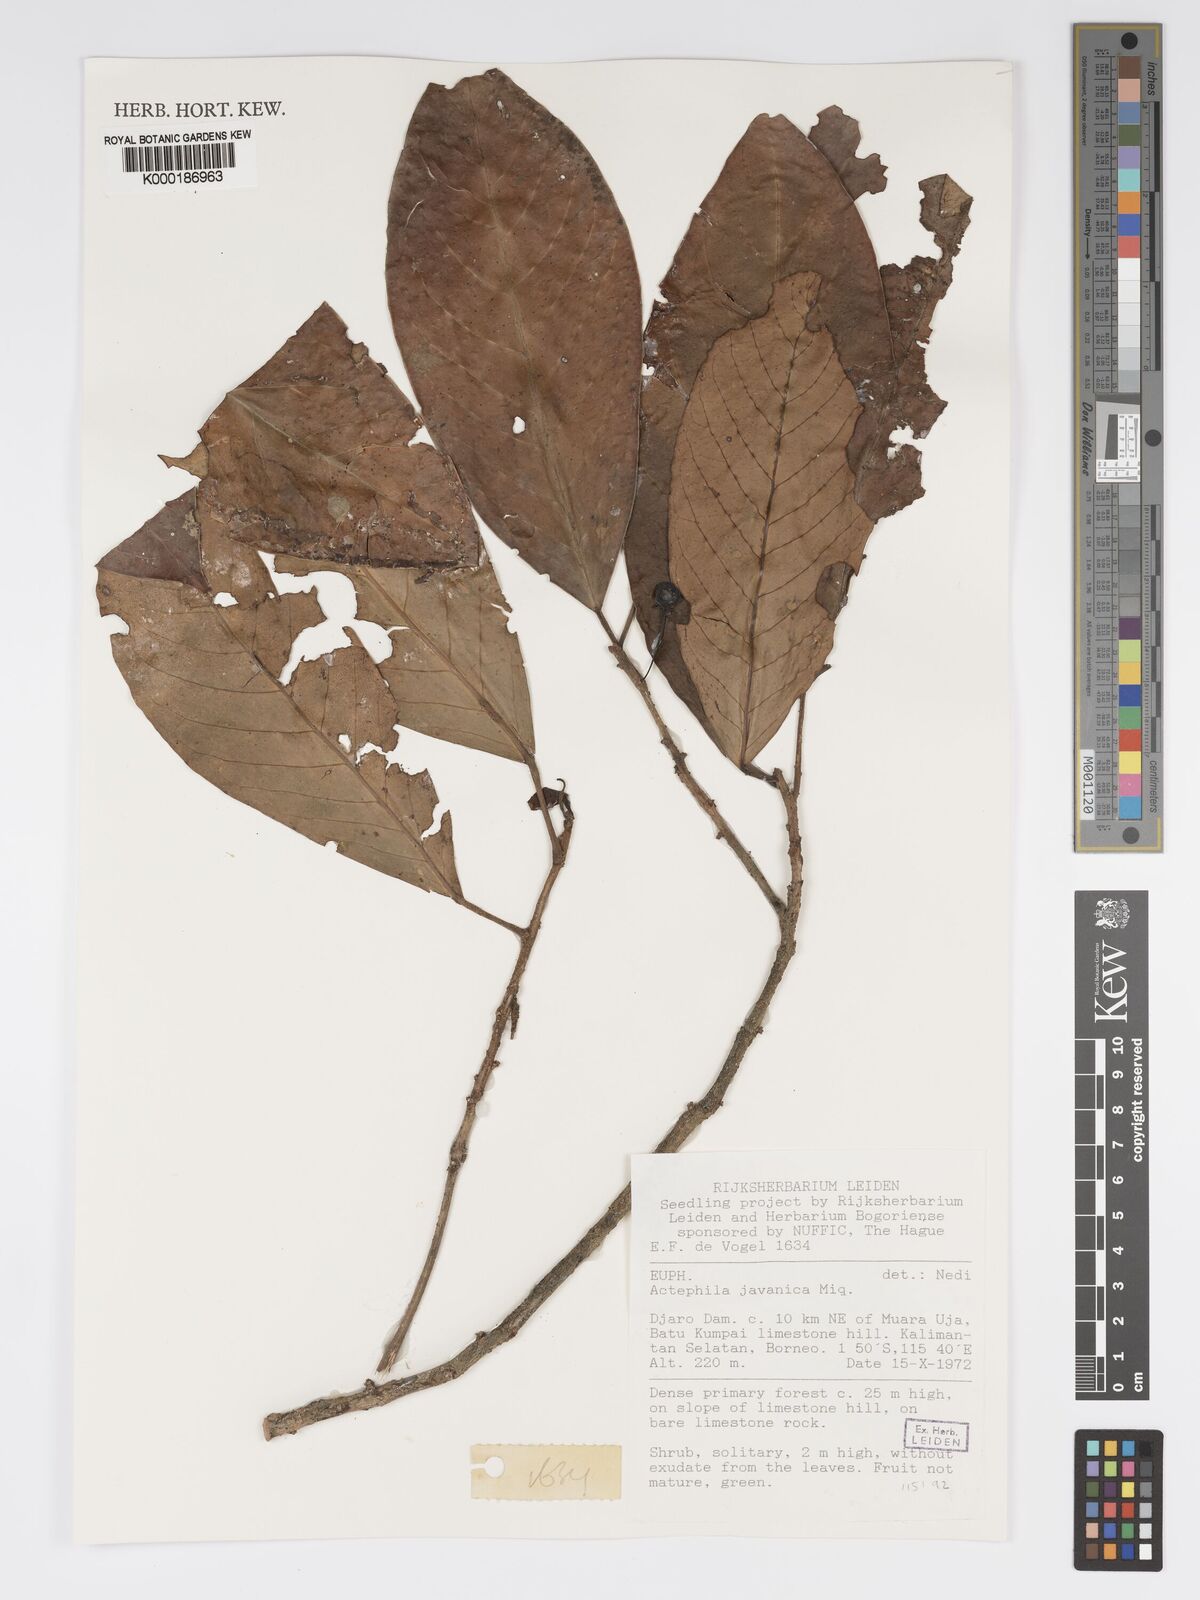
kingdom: Plantae
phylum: Tracheophyta
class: Magnoliopsida
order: Malpighiales
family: Phyllanthaceae
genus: Actephila
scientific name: Actephila
